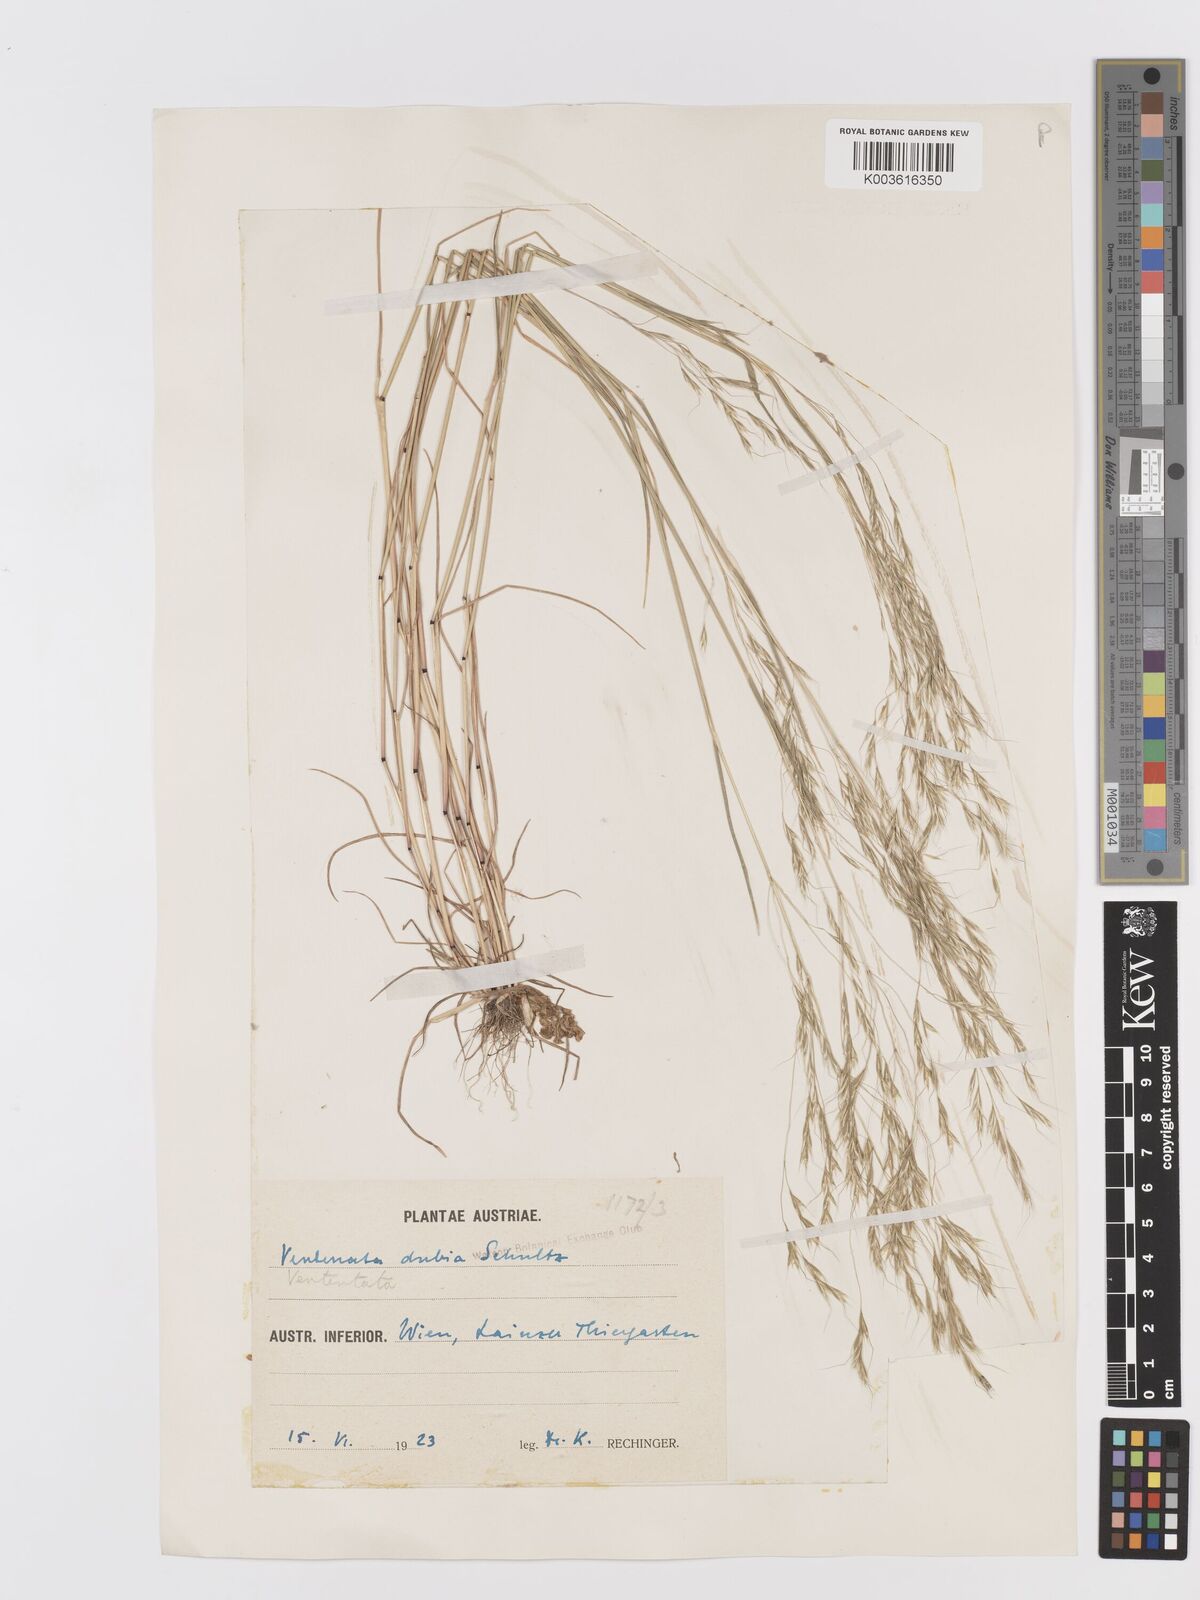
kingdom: Plantae
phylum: Tracheophyta
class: Liliopsida
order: Poales
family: Poaceae
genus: Ventenata
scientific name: Ventenata dubia
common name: North africa grass
